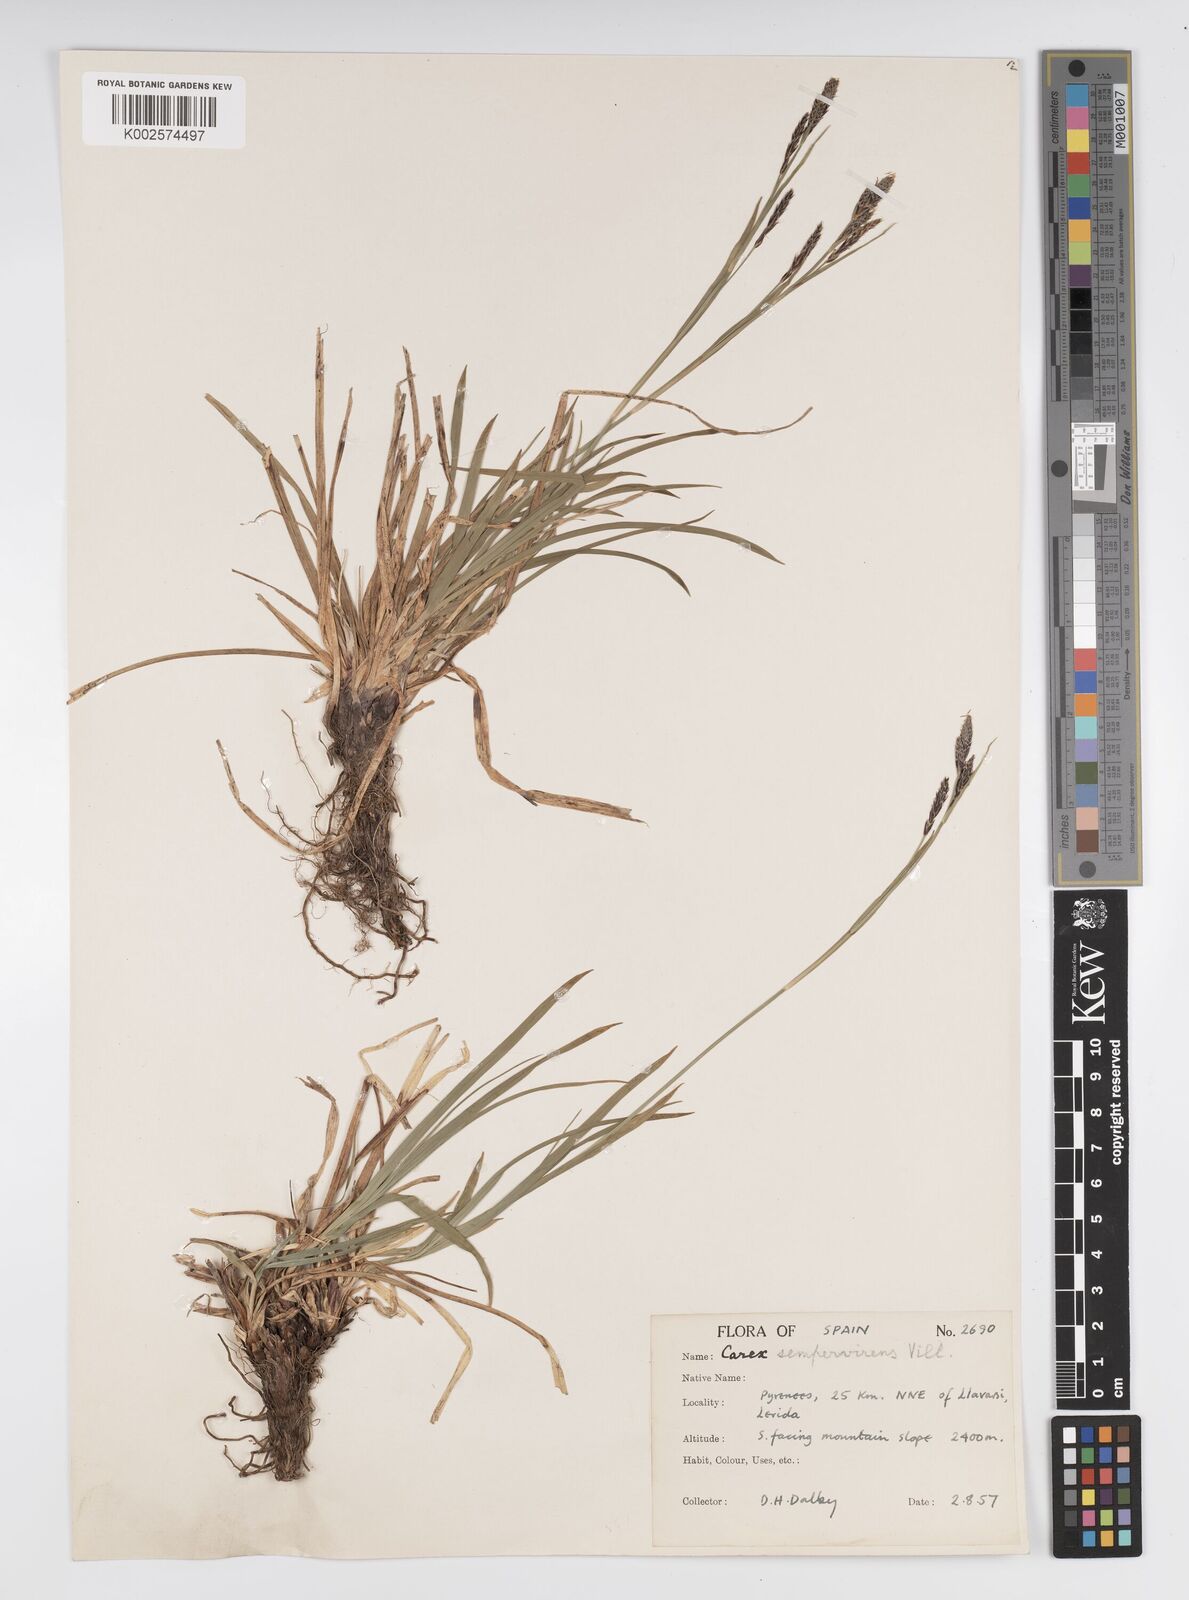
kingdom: Plantae
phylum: Tracheophyta
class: Liliopsida
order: Poales
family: Cyperaceae
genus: Carex
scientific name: Carex sempervirens
